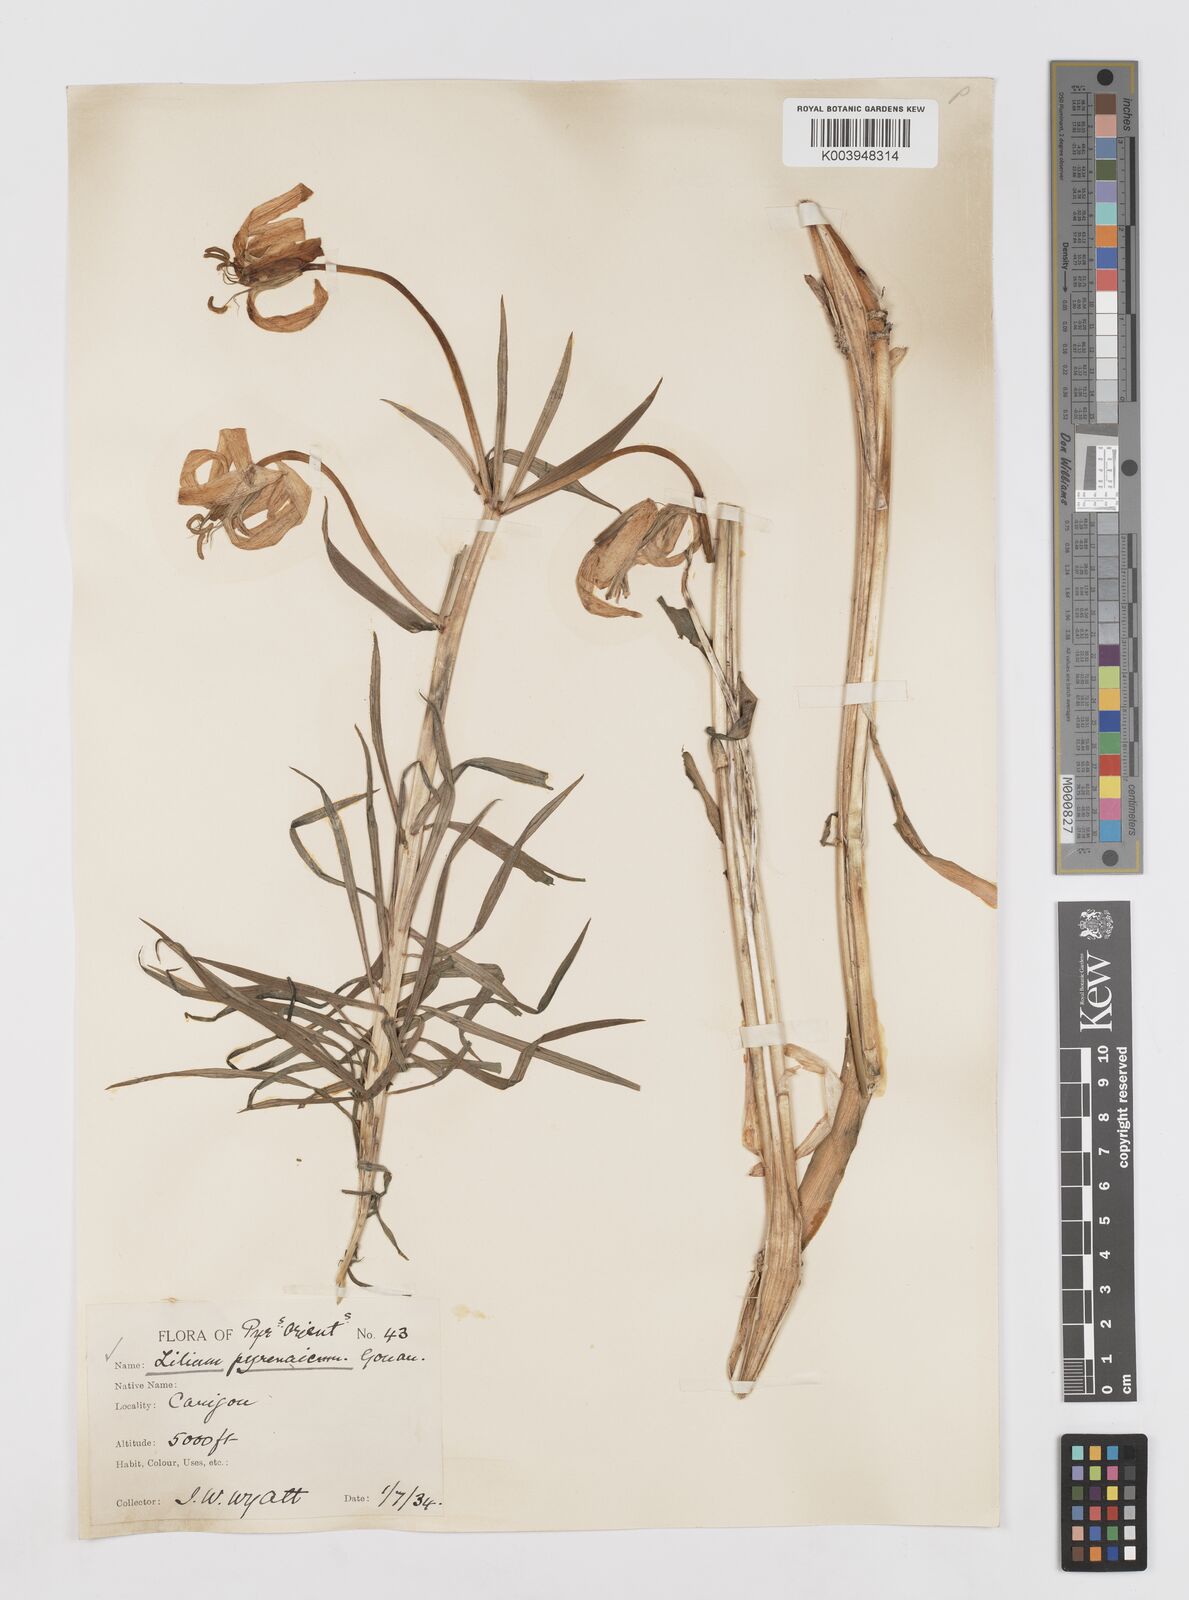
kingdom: Plantae
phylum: Tracheophyta
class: Liliopsida
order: Liliales
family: Liliaceae
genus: Lilium
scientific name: Lilium pyrenaicum
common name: Pyrenean lily
